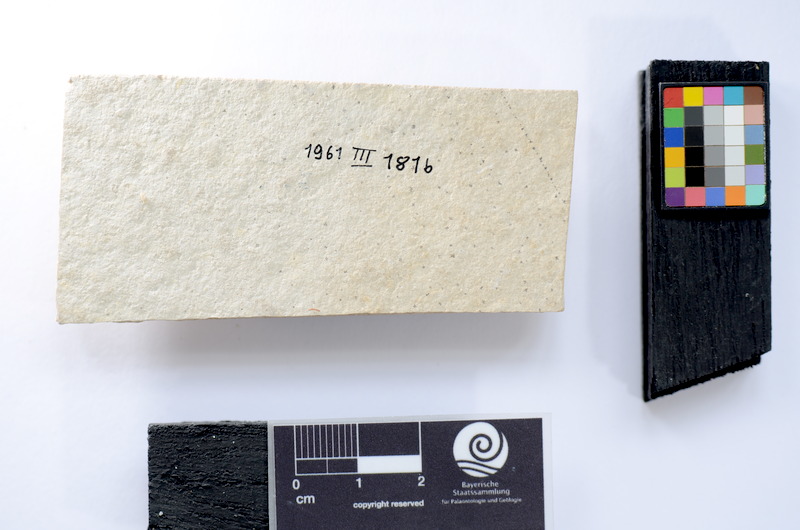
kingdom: Animalia
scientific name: Animalia
